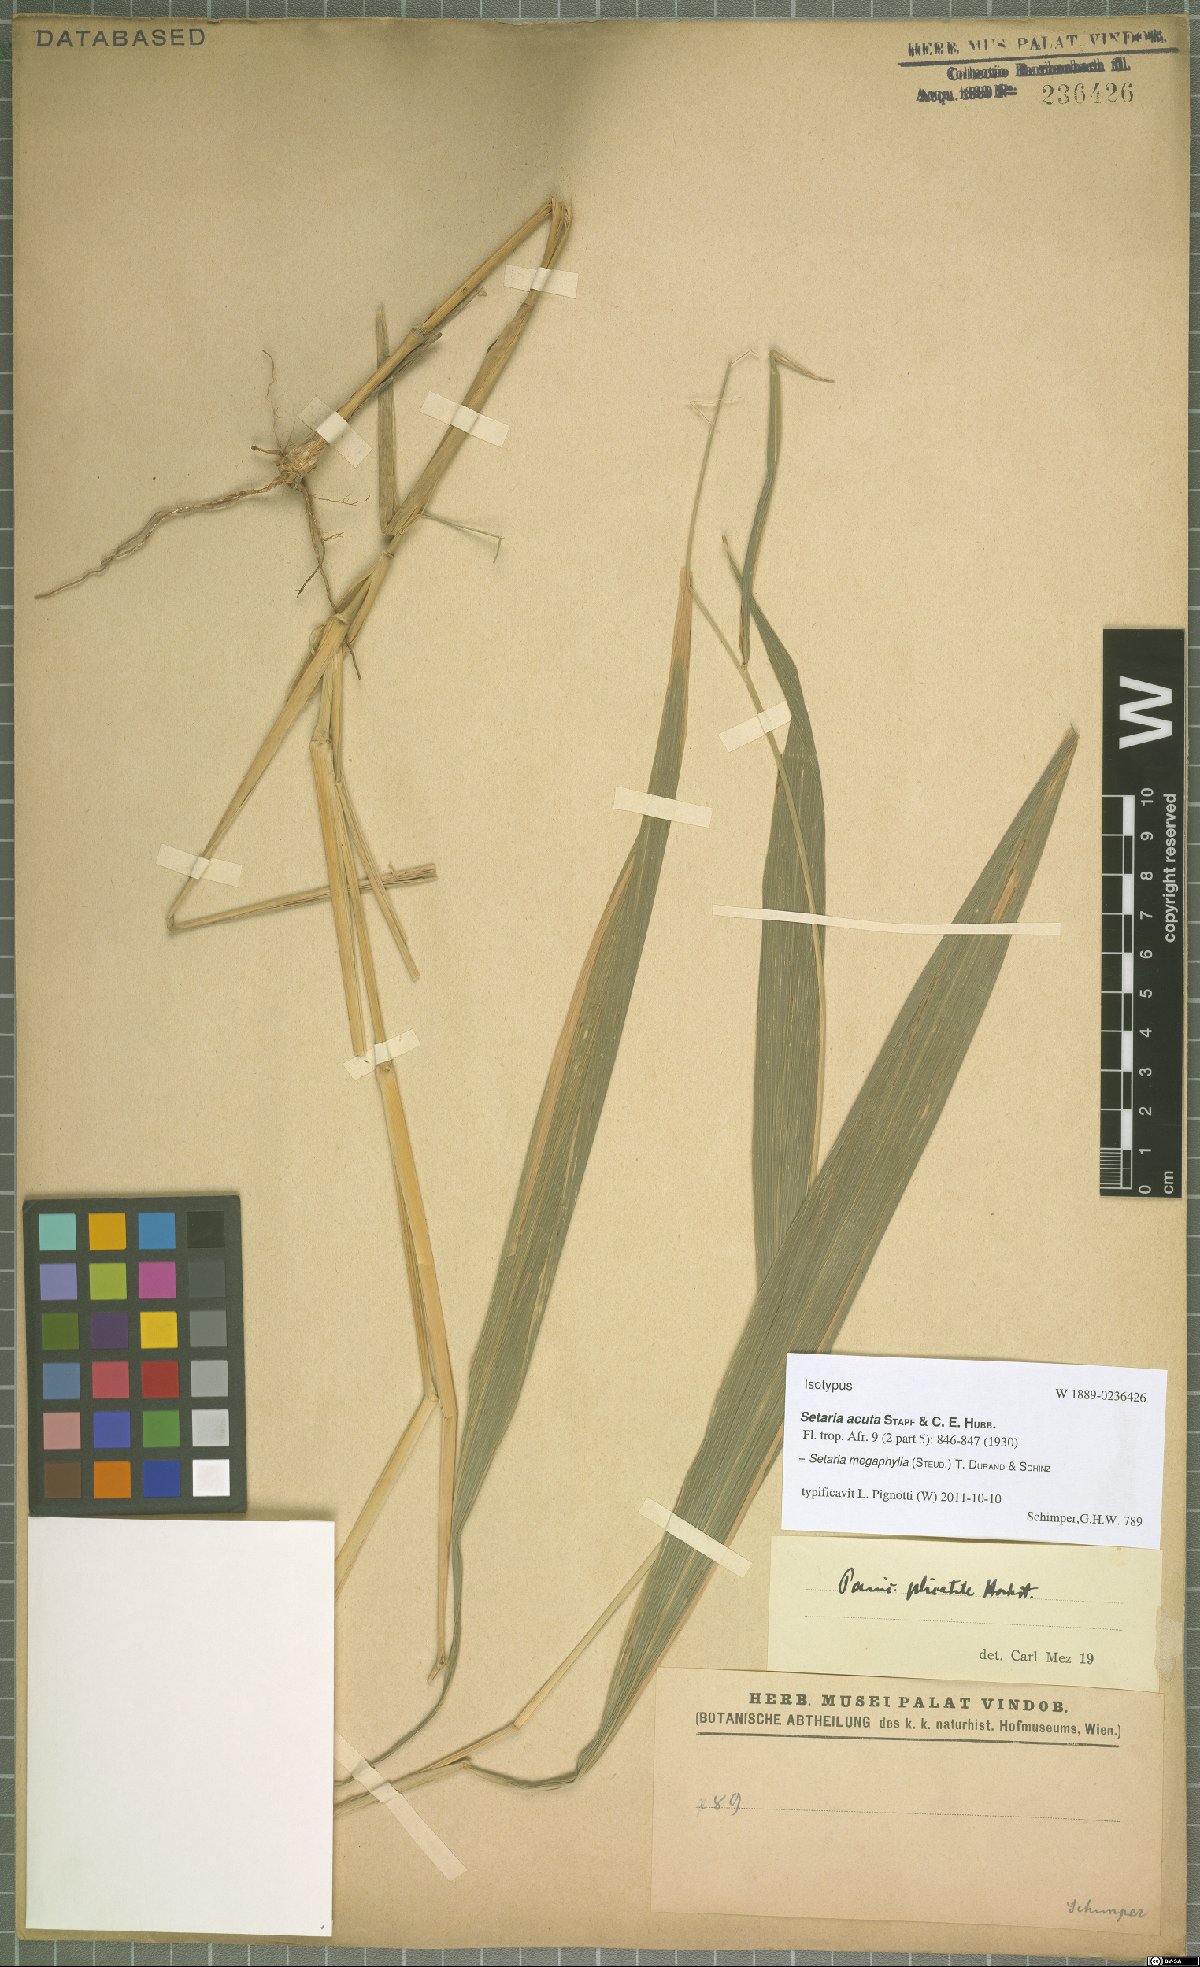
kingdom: Plantae
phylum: Tracheophyta
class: Liliopsida
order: Poales
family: Poaceae
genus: Setaria
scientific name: Setaria megaphylla
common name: Bigleaf bristlegrass
